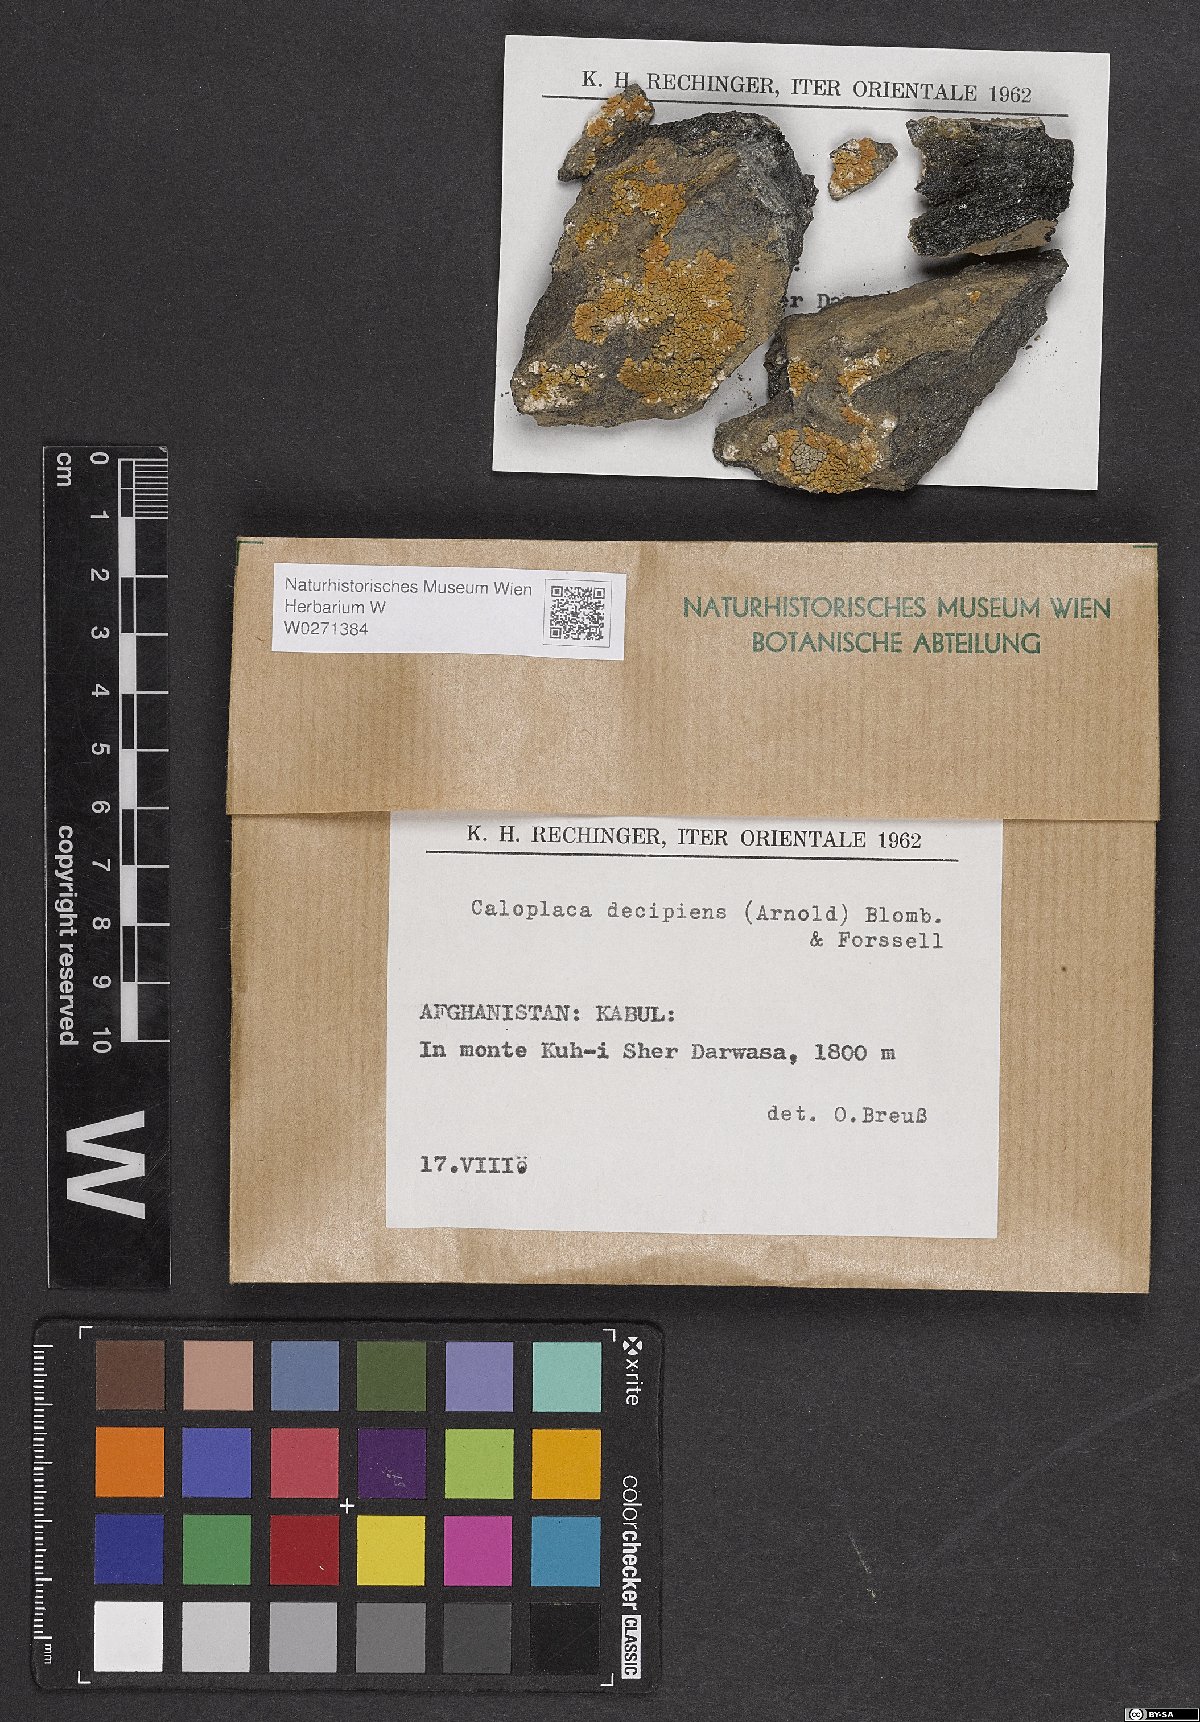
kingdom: Fungi
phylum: Ascomycota
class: Lecanoromycetes
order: Teloschistales
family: Teloschistaceae
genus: Calogaya
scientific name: Calogaya decipiens
